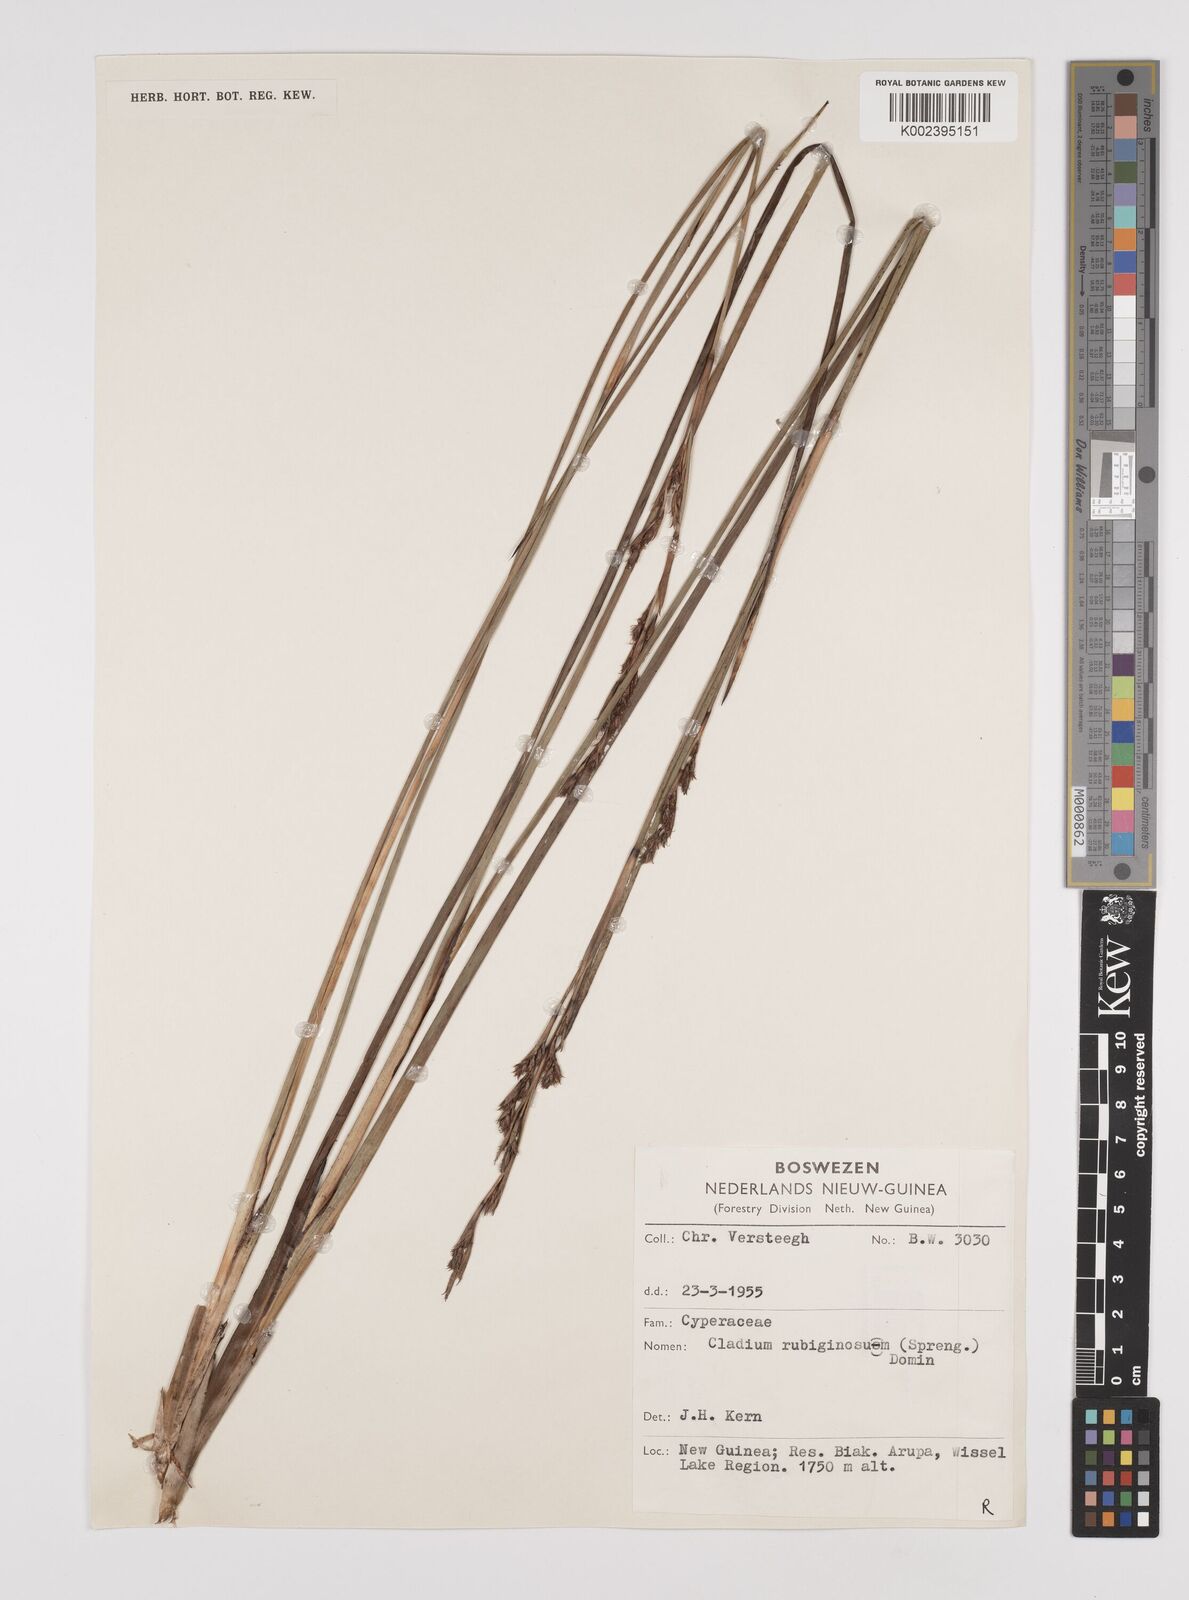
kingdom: Plantae
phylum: Tracheophyta
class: Liliopsida
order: Poales
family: Cyperaceae
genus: Machaerina
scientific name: Machaerina rubiginosa
